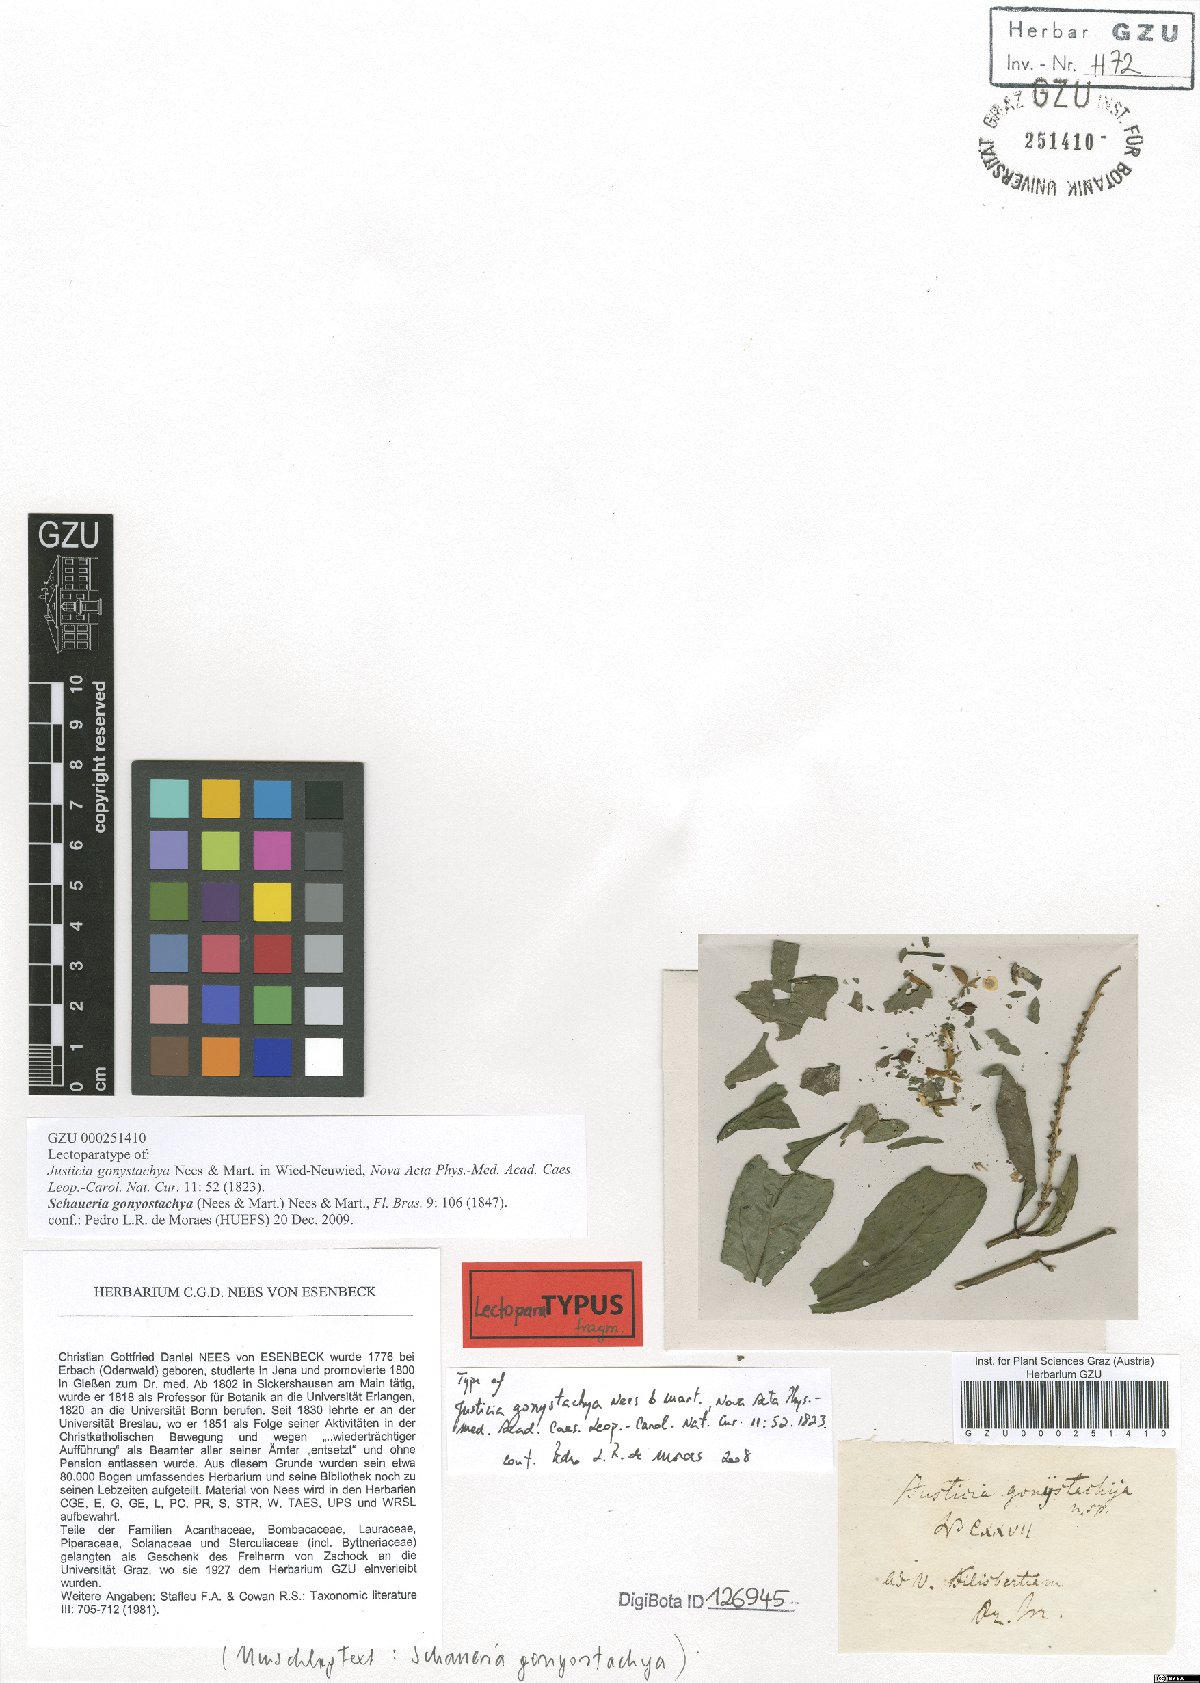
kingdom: Plantae
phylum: Tracheophyta
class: Magnoliopsida
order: Lamiales
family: Acanthaceae
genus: Schaueria
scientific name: Schaueria gonatistachya
